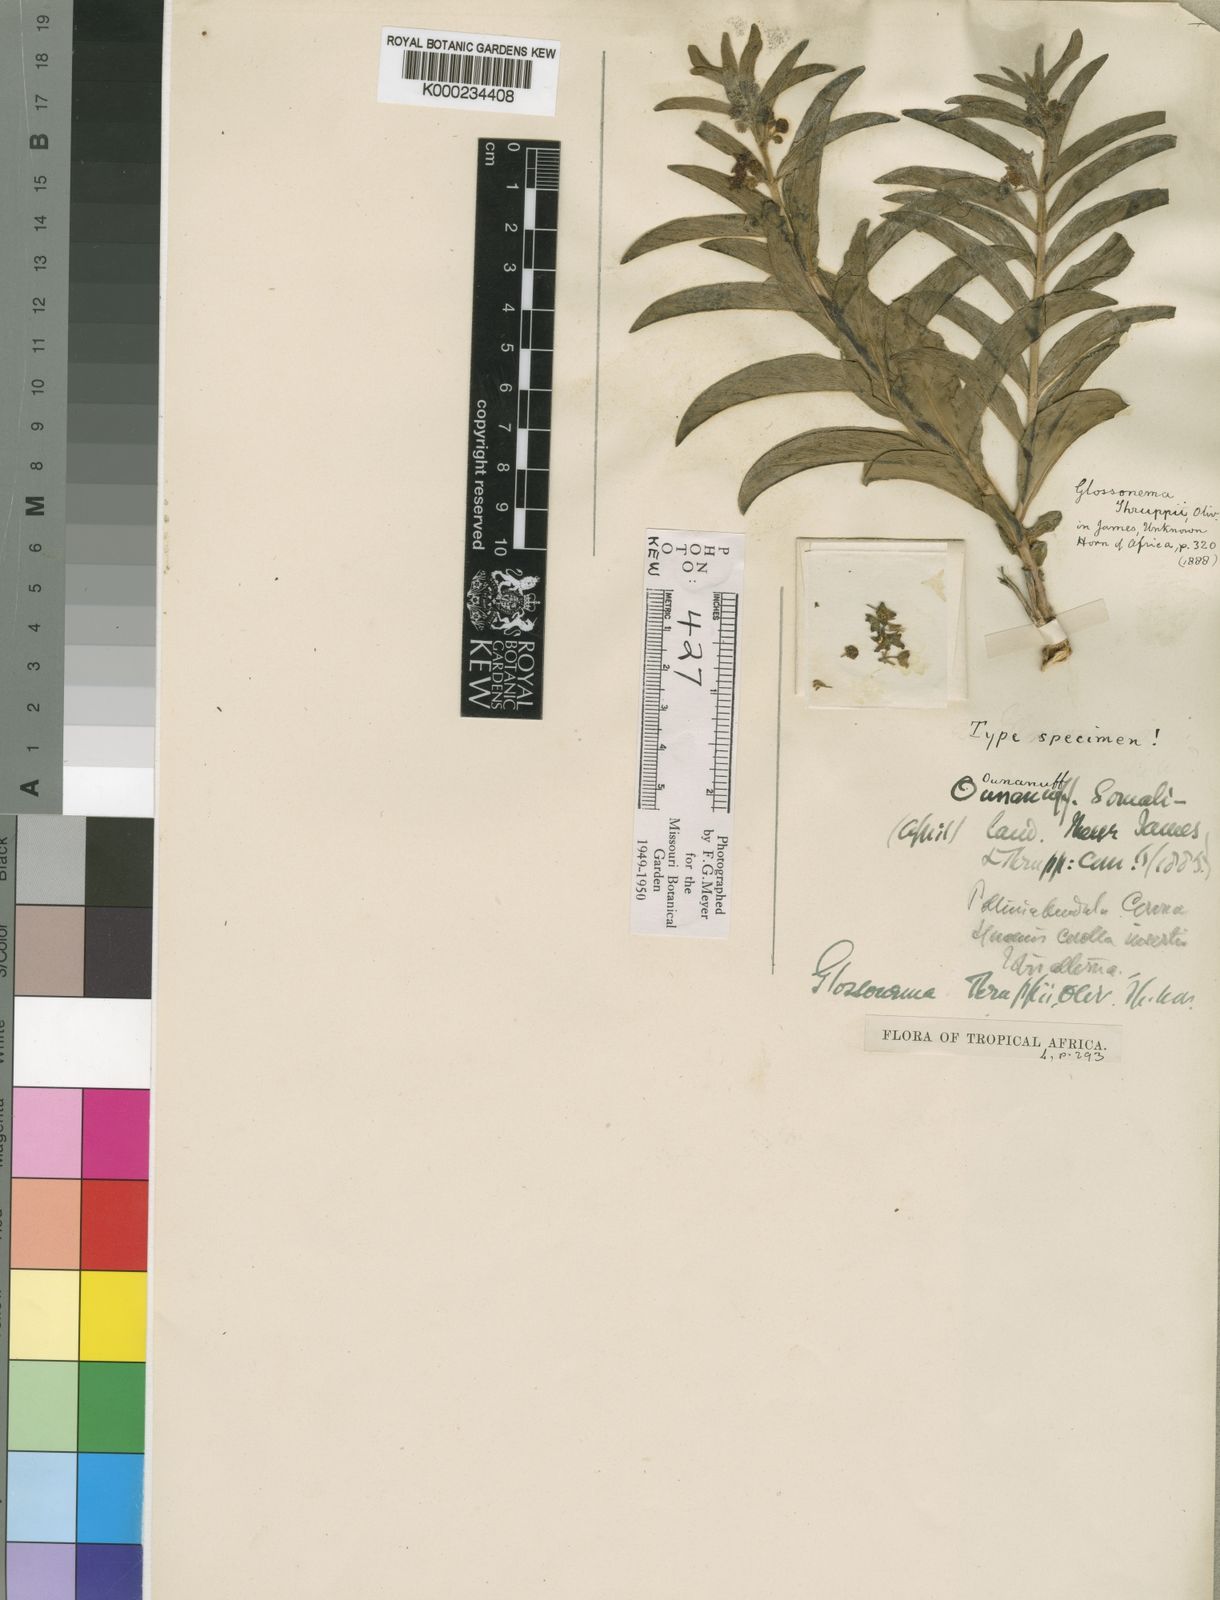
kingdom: Plantae
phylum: Tracheophyta
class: Magnoliopsida
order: Gentianales
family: Apocynaceae
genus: Cynanchum
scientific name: Cynanchum thruppii
